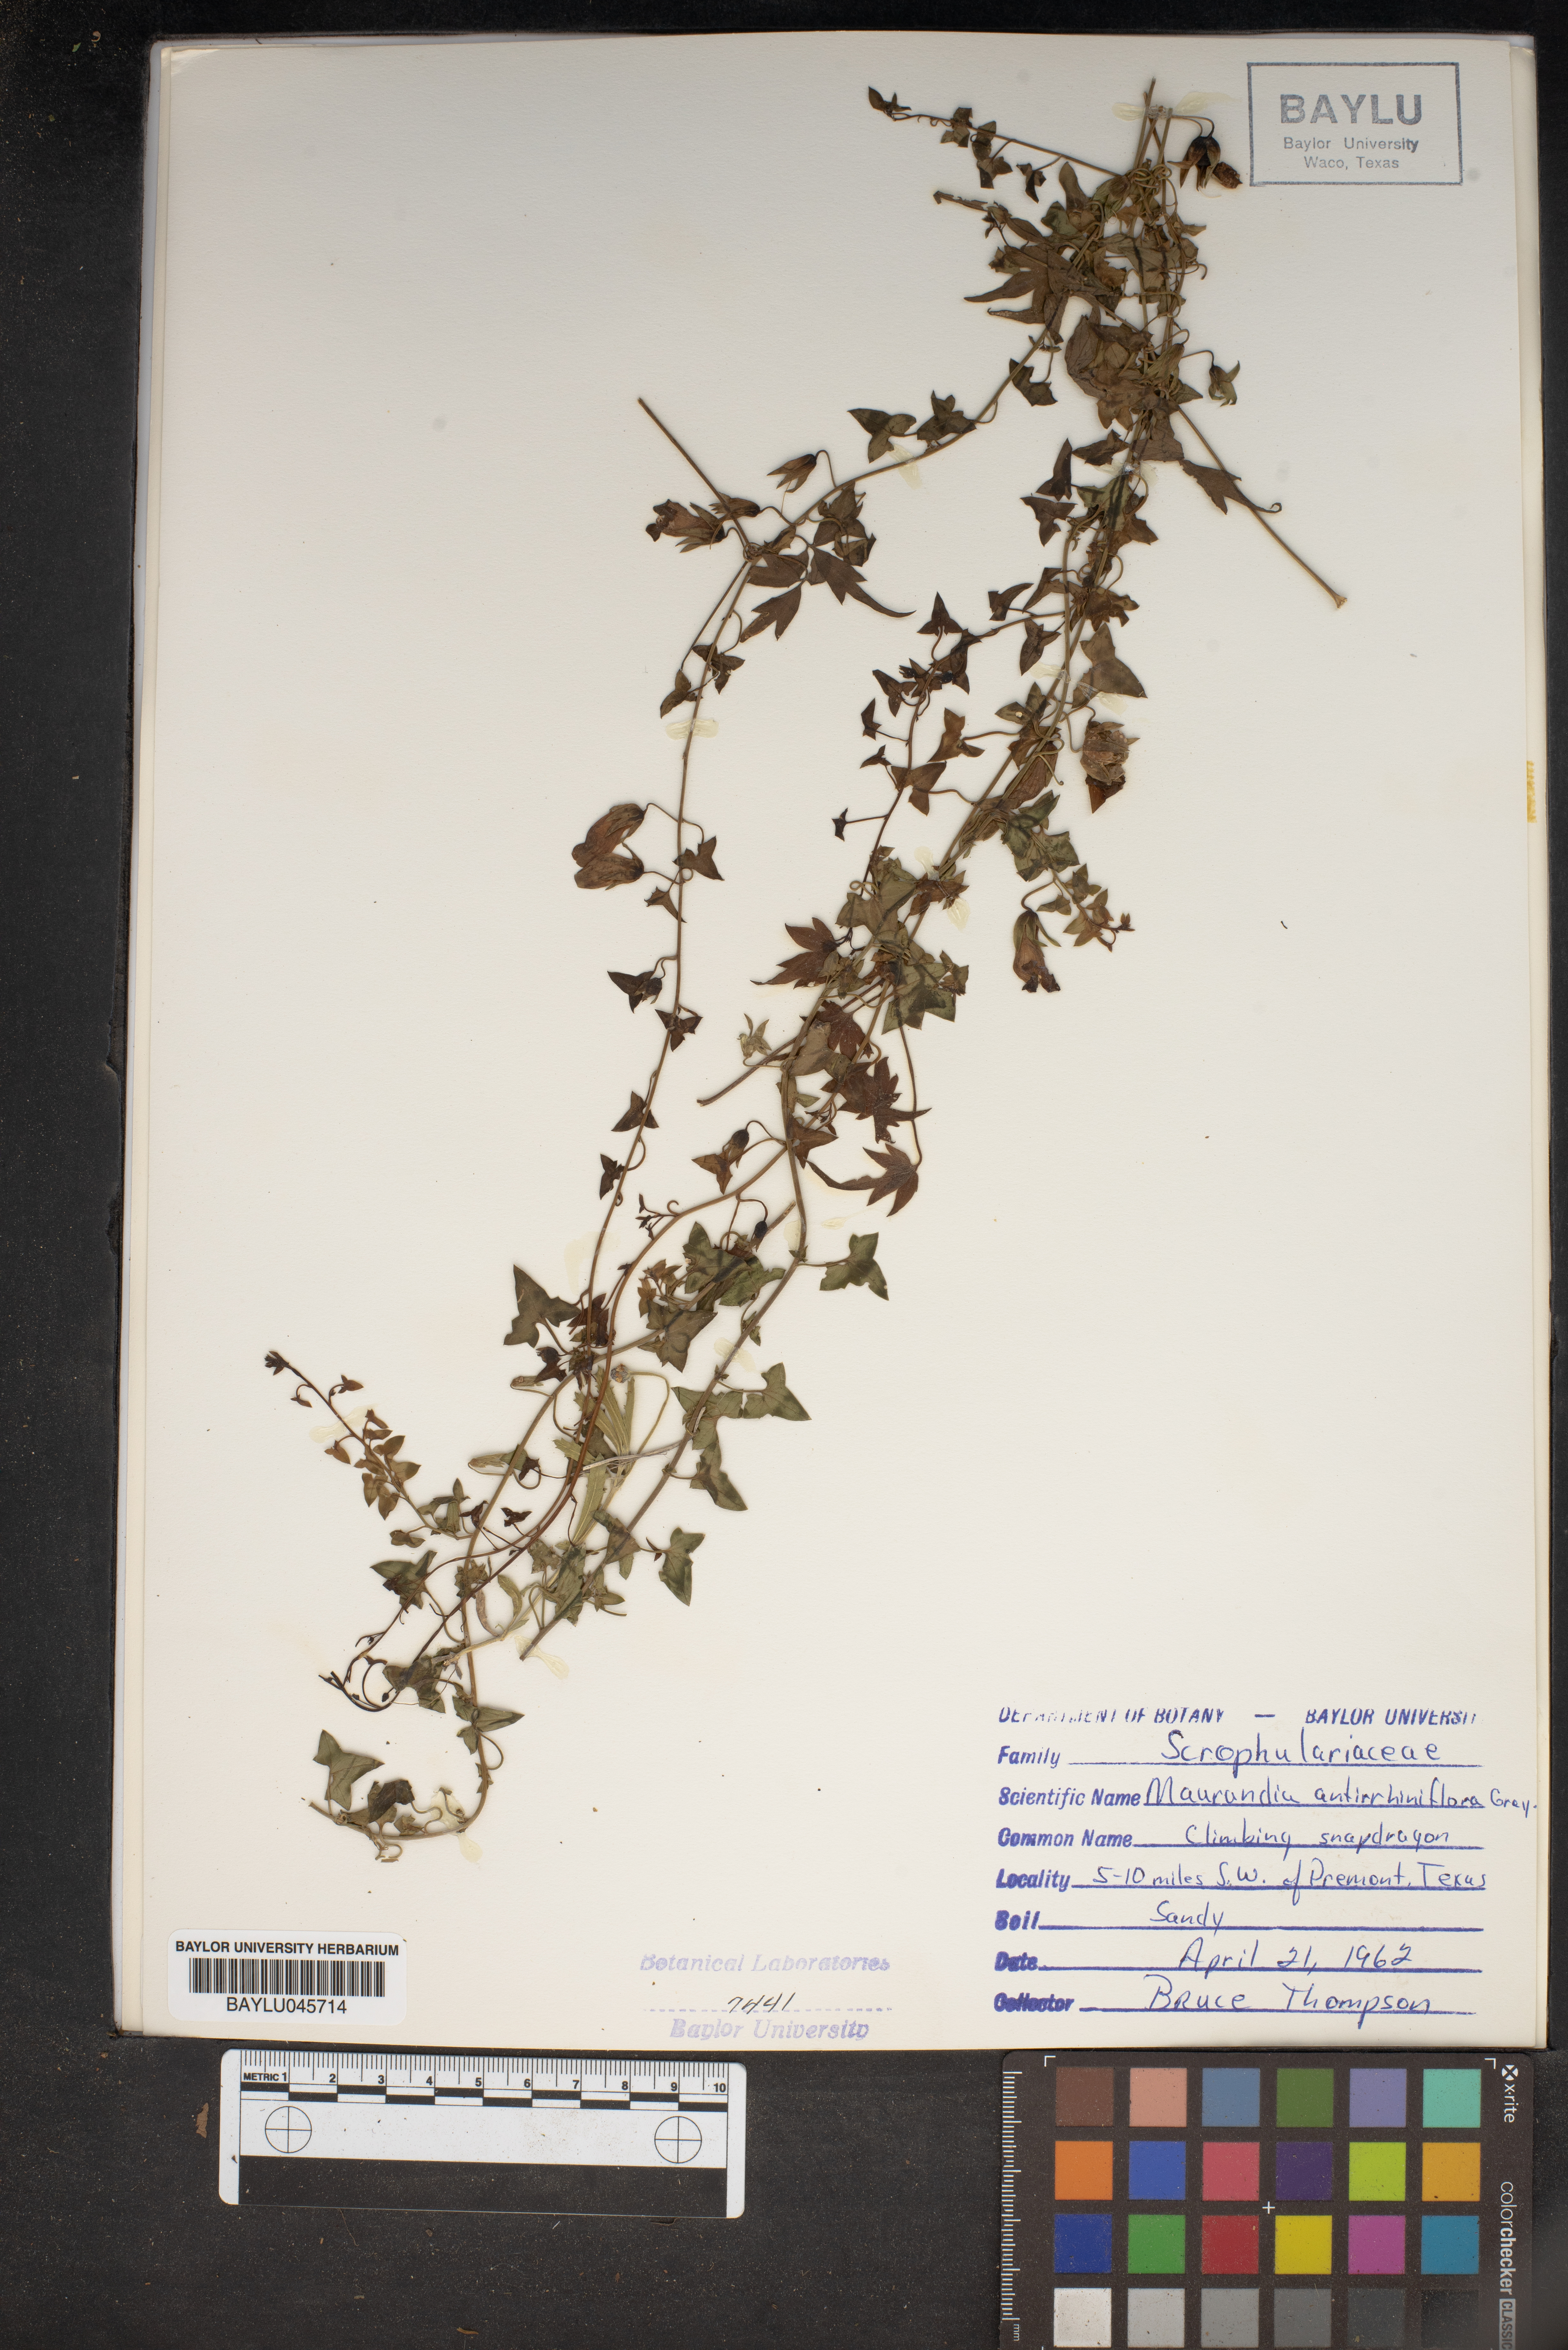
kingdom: Plantae
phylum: Tracheophyta
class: Magnoliopsida
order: Lamiales
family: Plantaginaceae
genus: Maurandella
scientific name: Maurandella antirrhiniflora
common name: Violet twining-snapdragon
